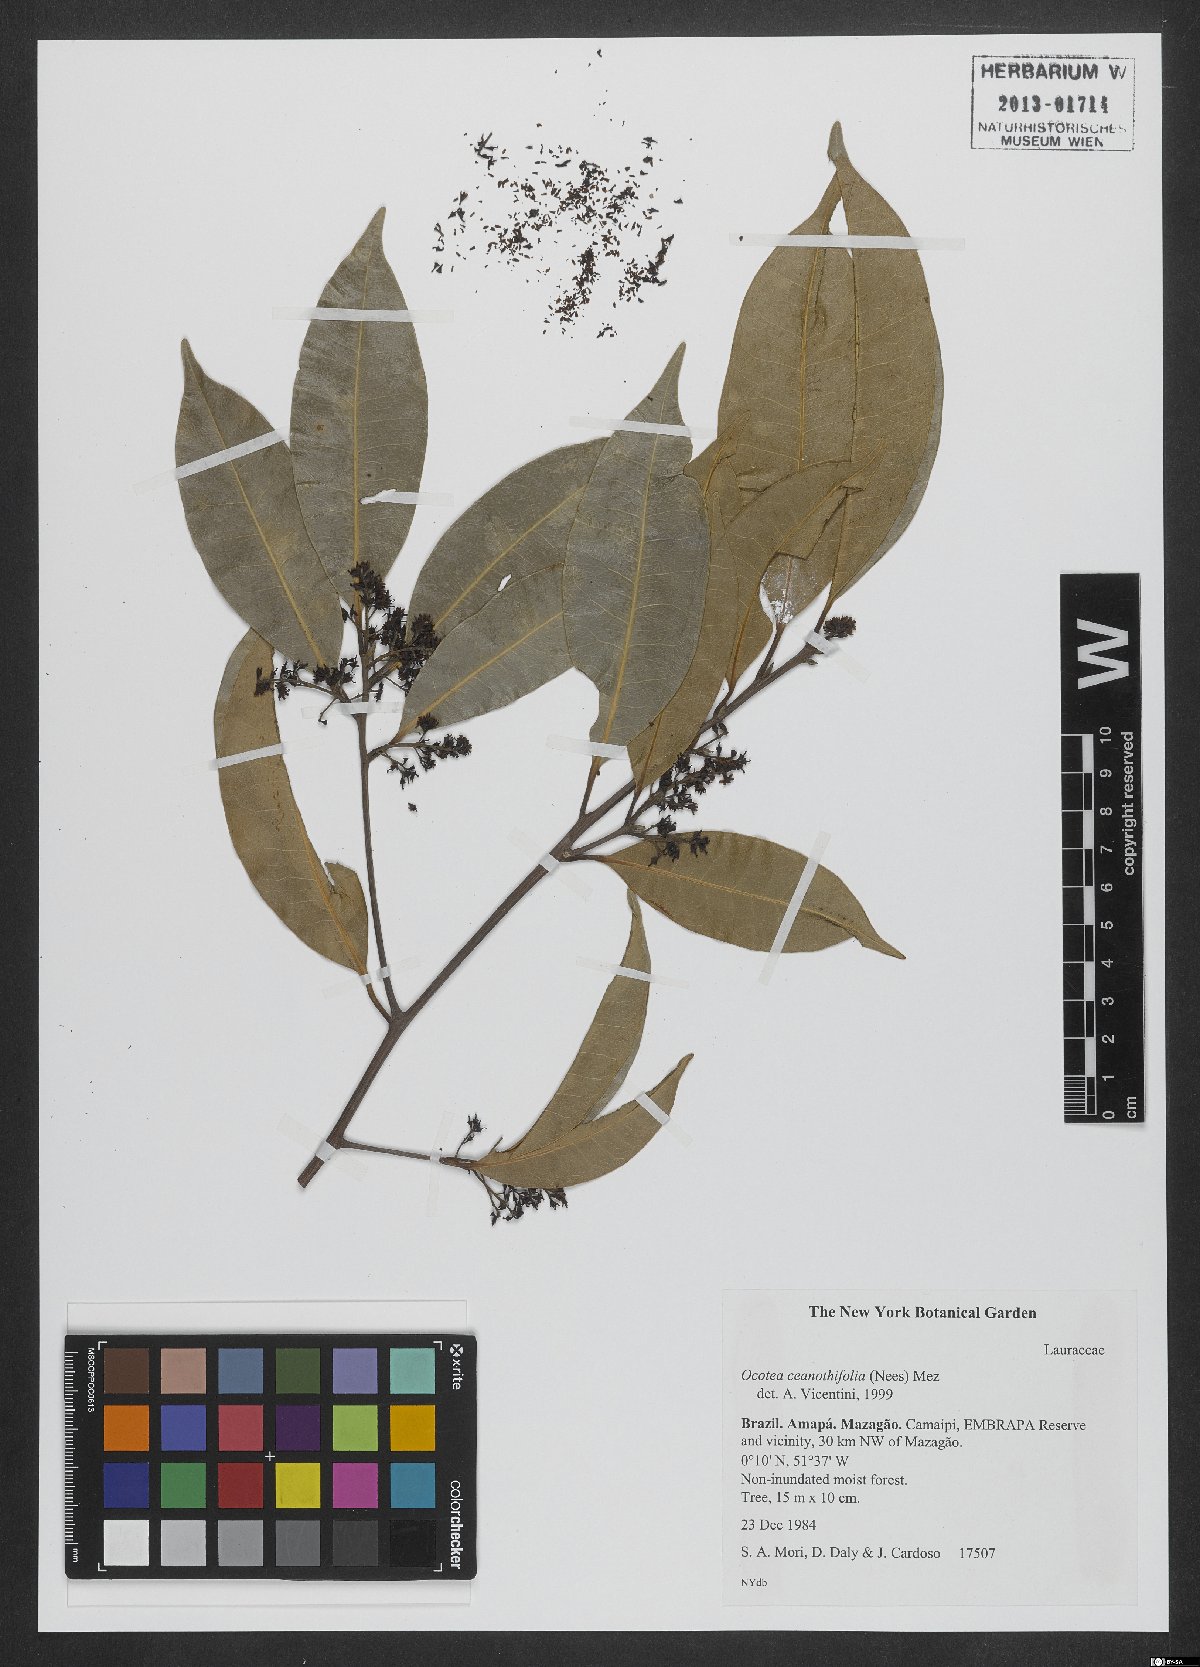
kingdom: Plantae
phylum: Tracheophyta
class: Magnoliopsida
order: Laurales
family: Lauraceae
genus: Mespilodaphne
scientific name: Mespilodaphne ceanothifolia
